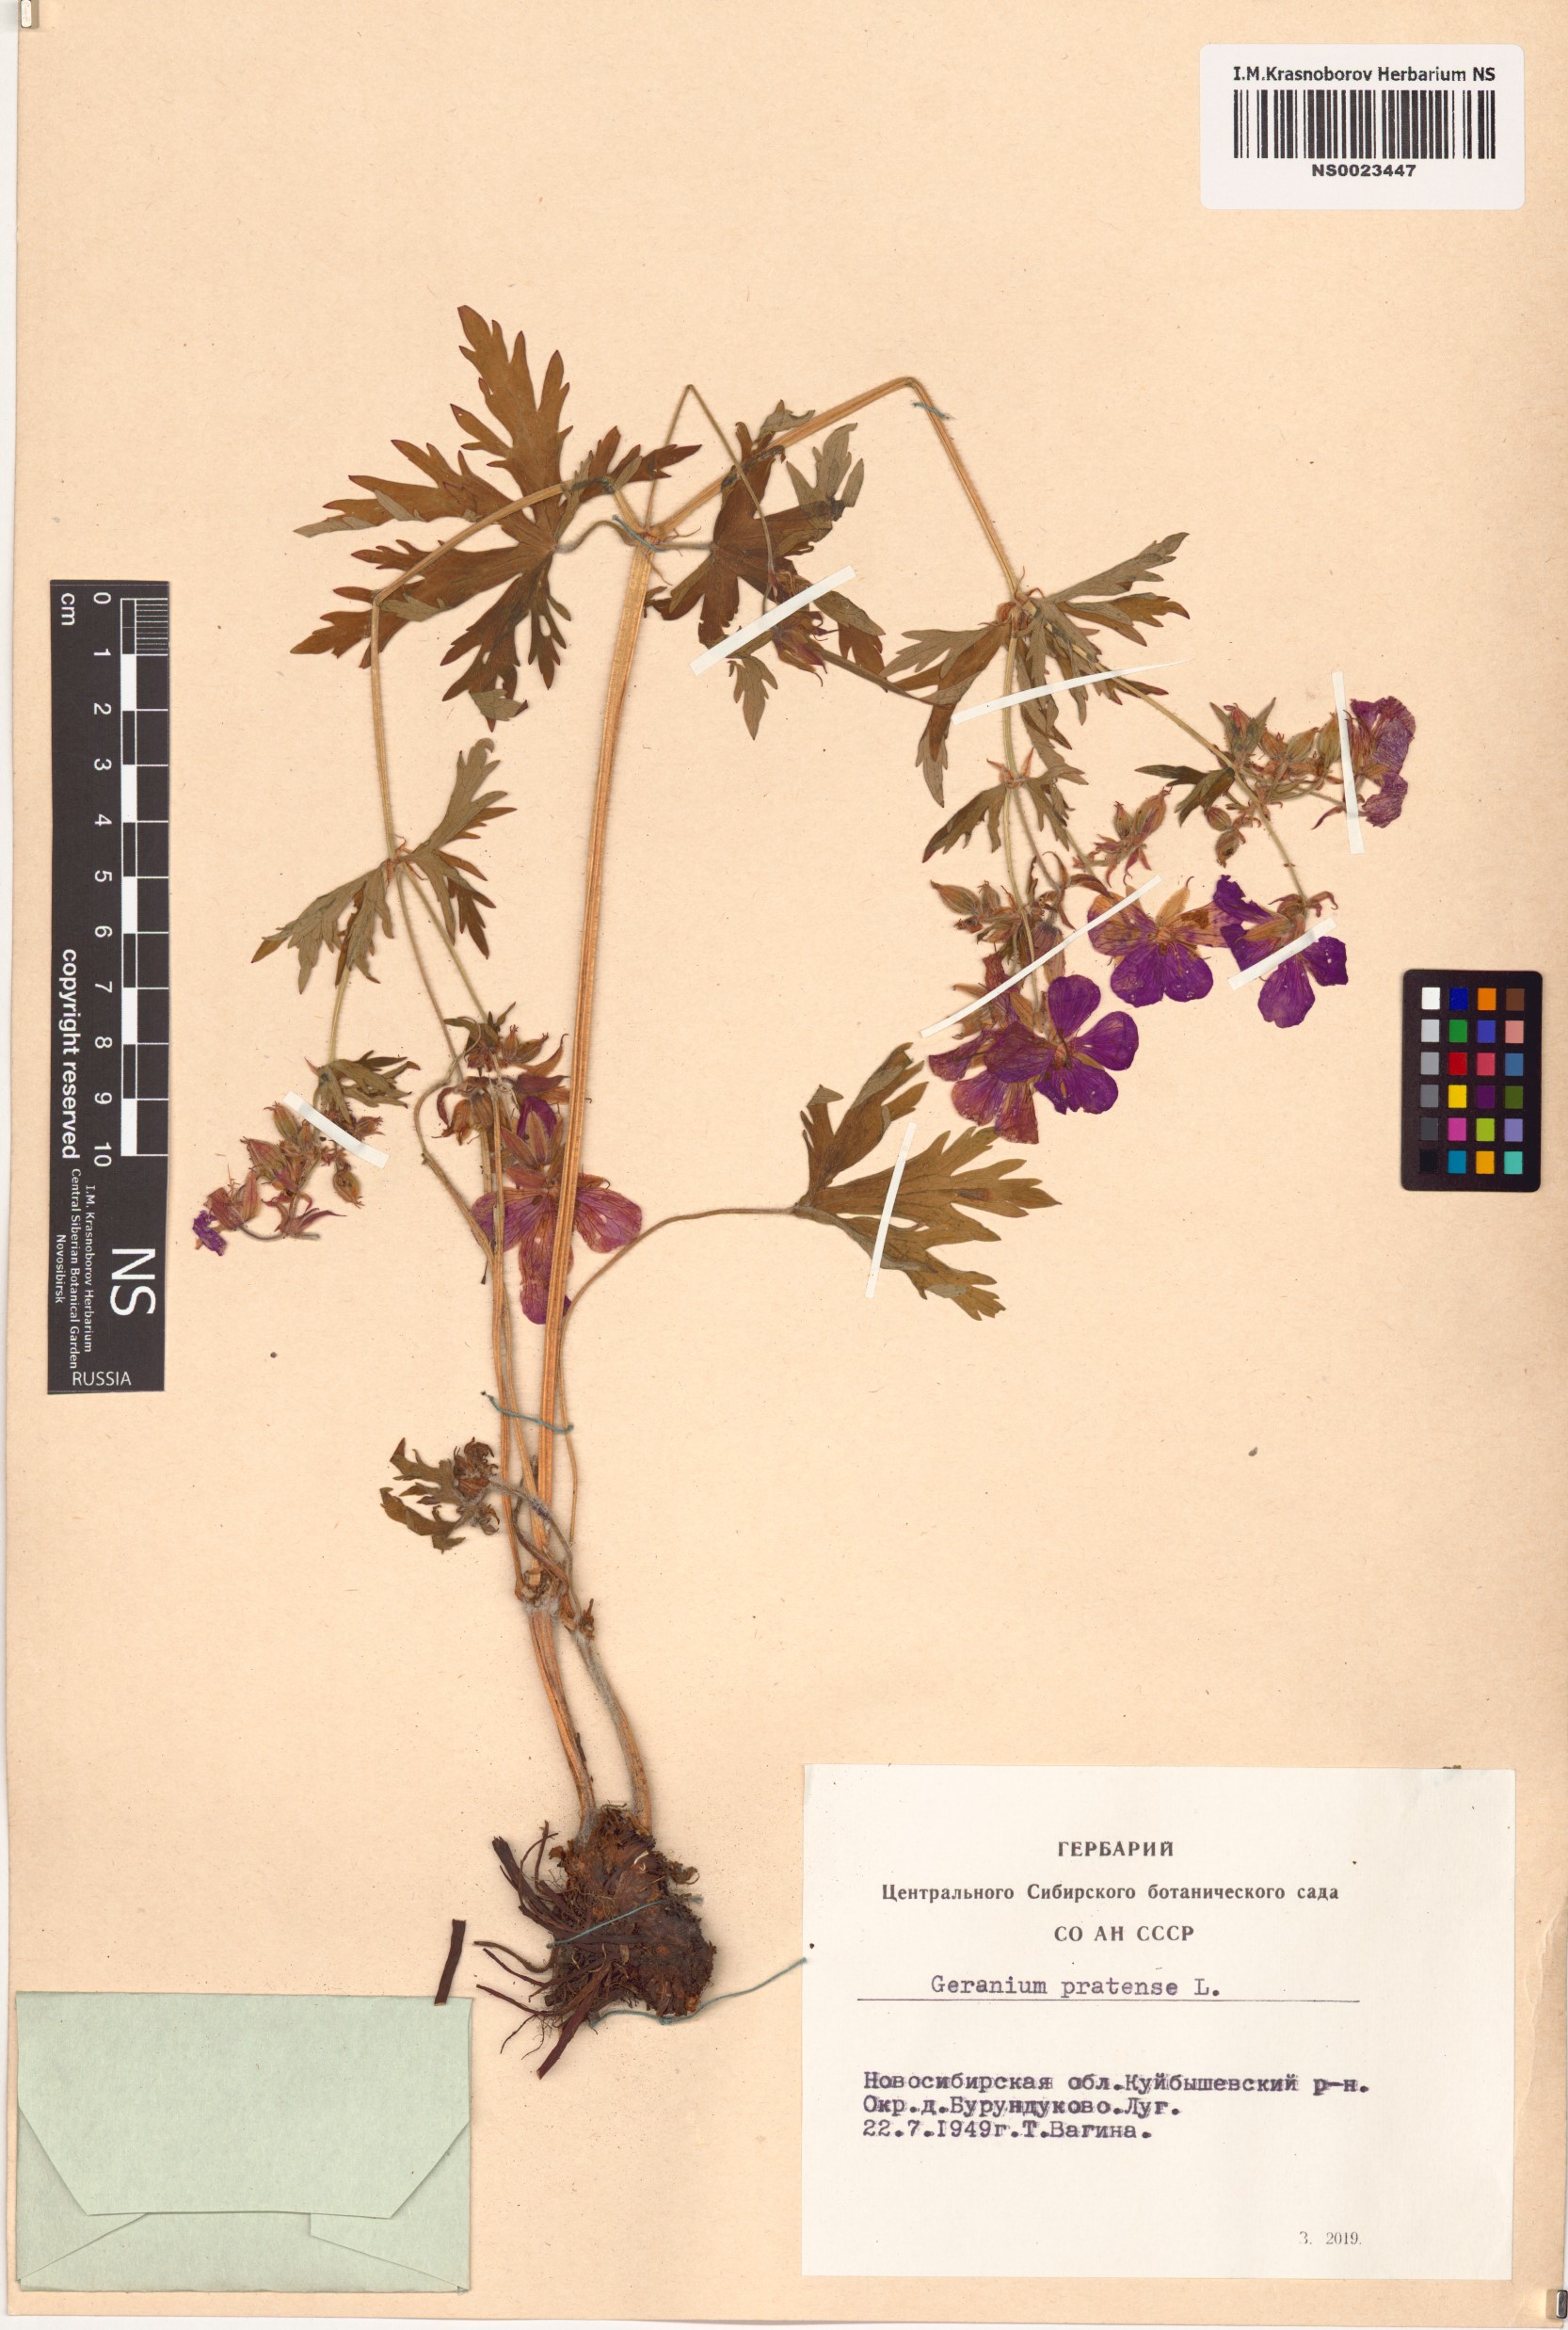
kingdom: Plantae
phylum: Tracheophyta
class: Magnoliopsida
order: Geraniales
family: Geraniaceae
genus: Geranium
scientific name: Geranium pratense
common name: Meadow crane's-bill
